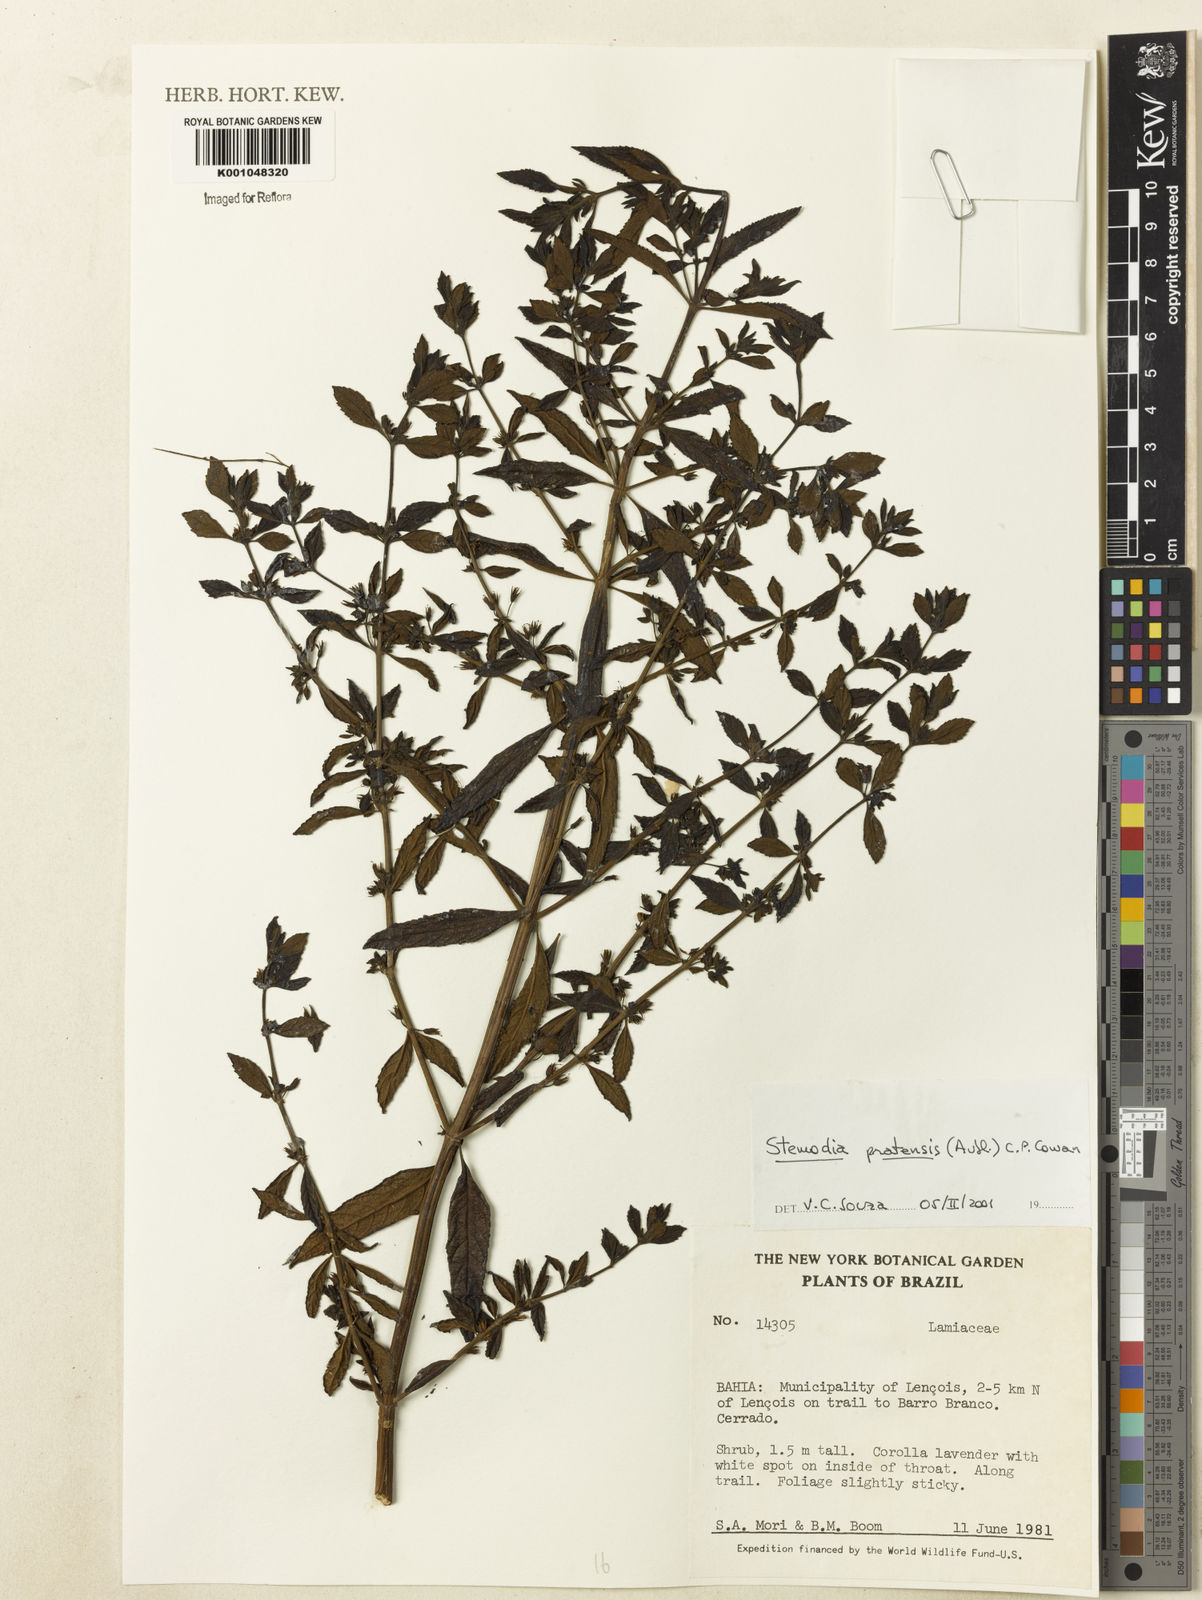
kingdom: Plantae
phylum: Tracheophyta
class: Magnoliopsida
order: Lamiales
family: Plantaginaceae
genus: Stemodia
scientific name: Stemodia foliosa
